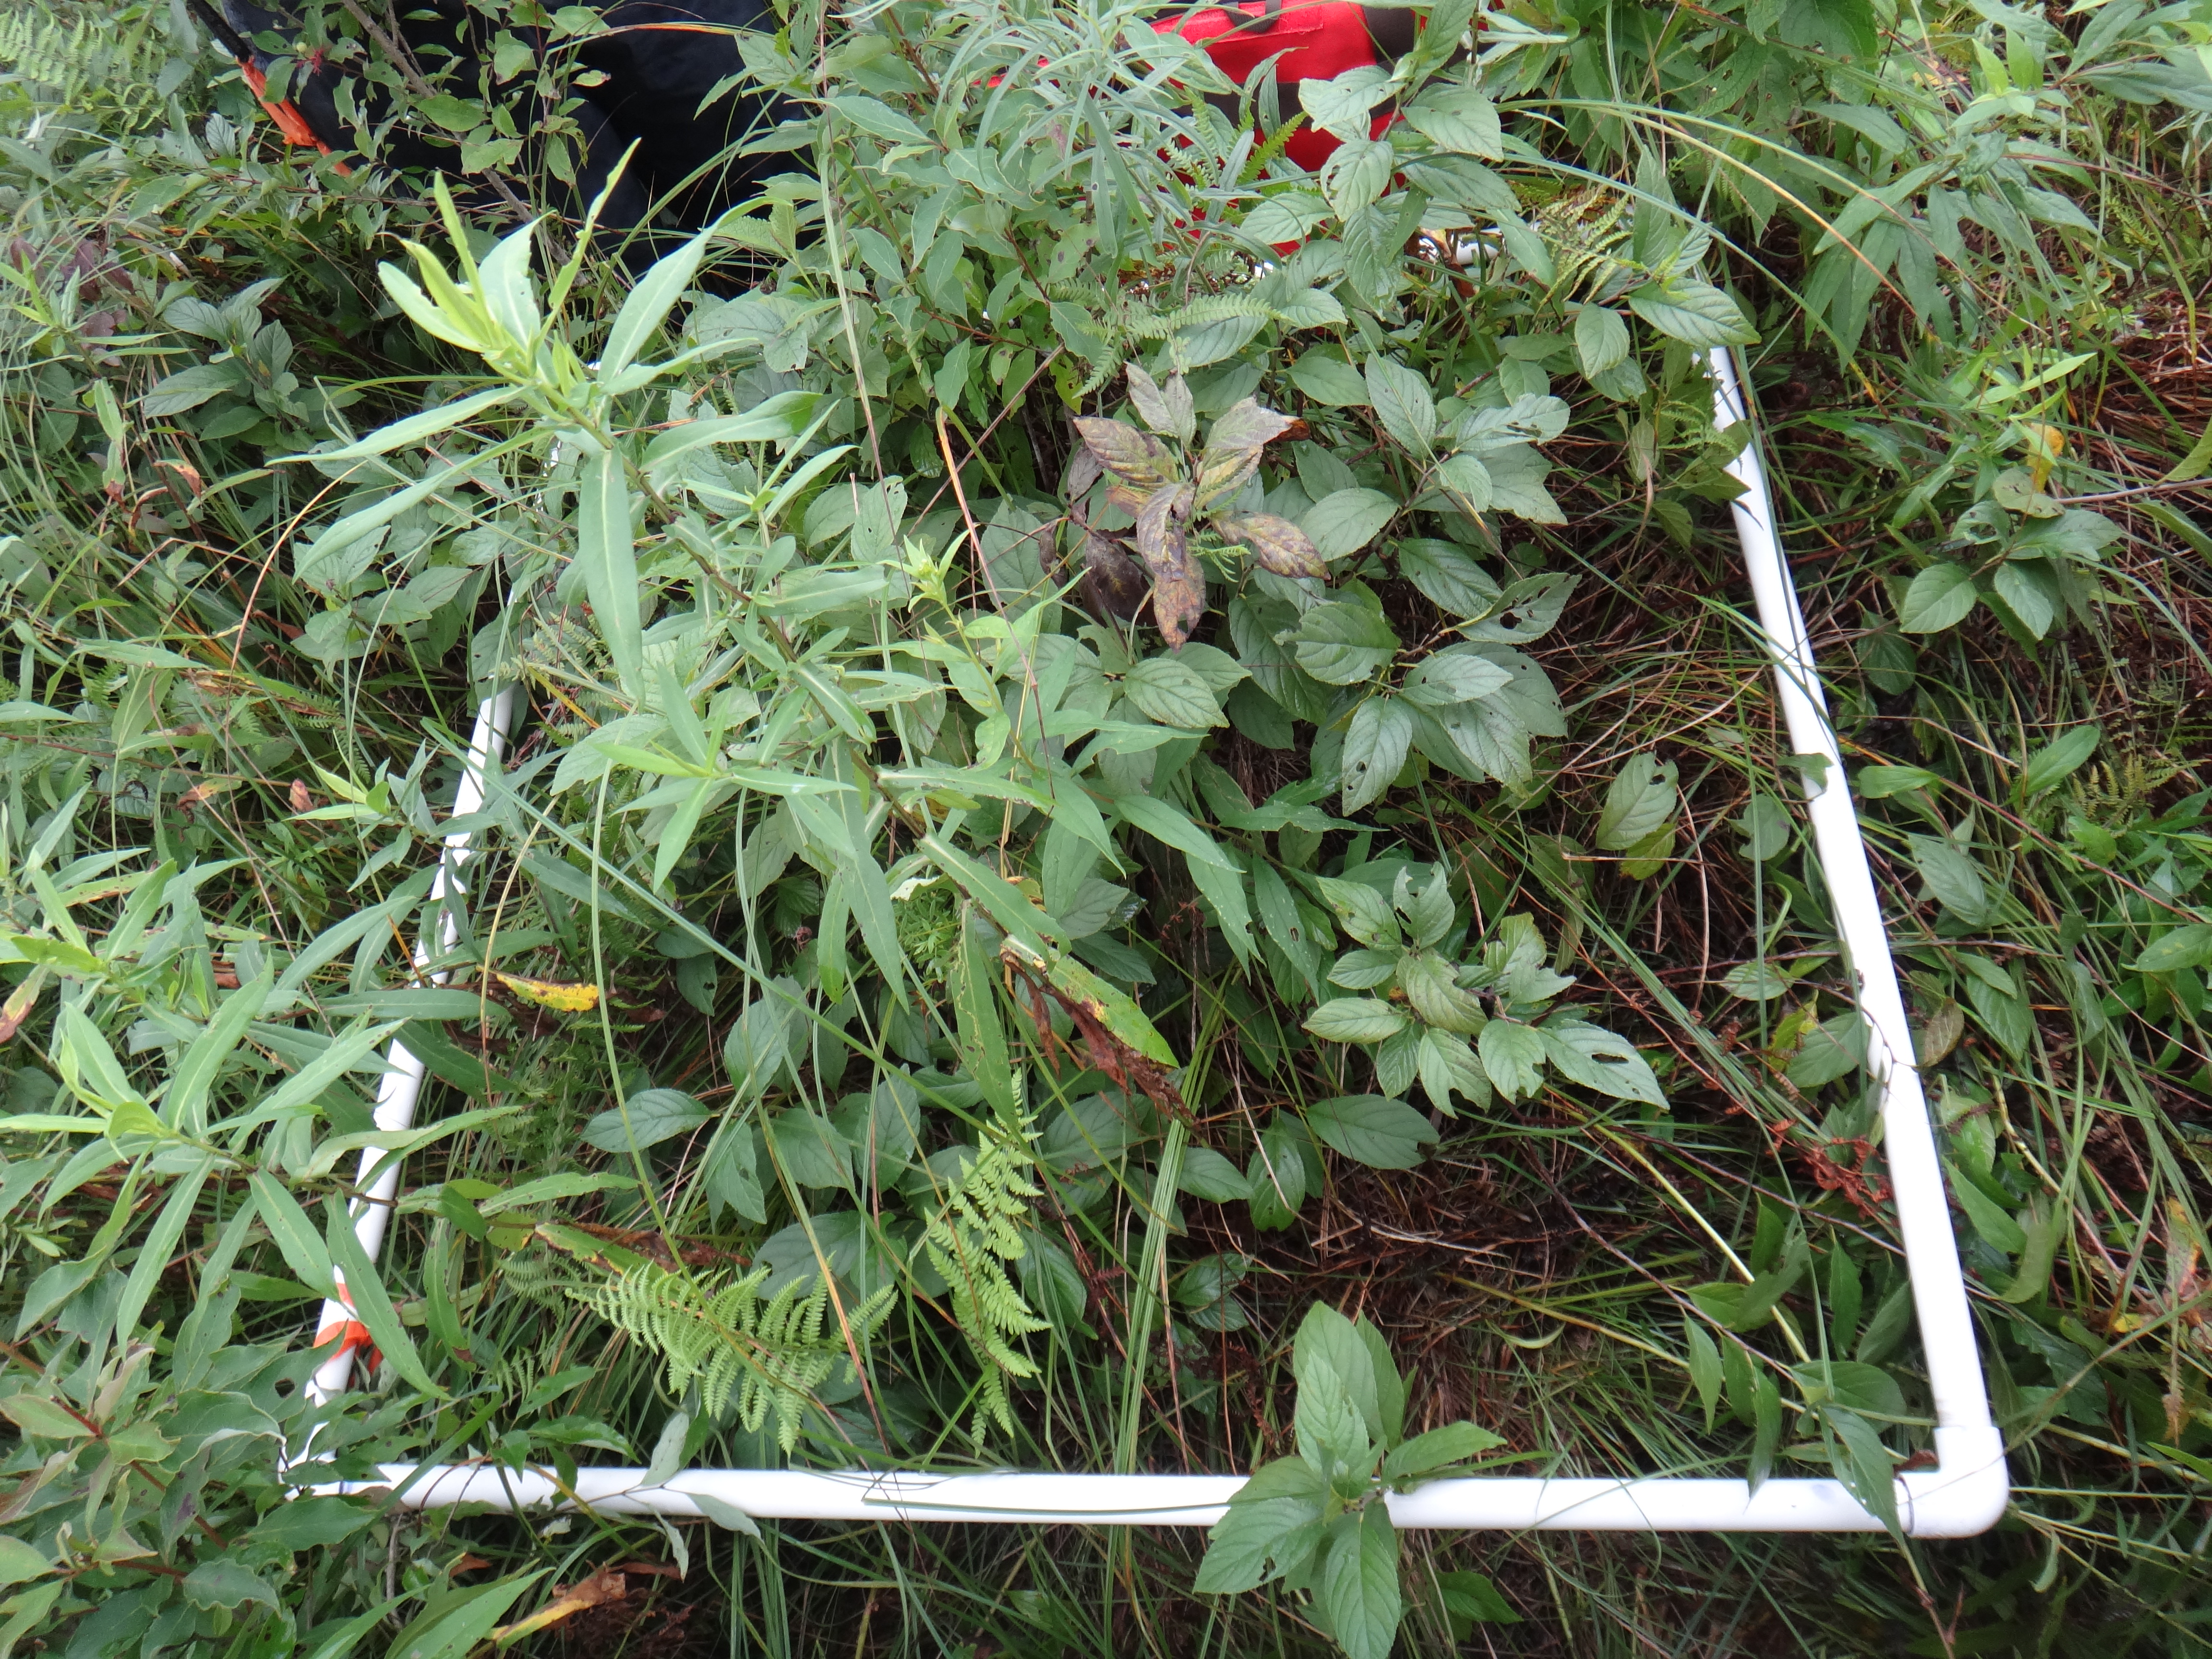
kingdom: Plantae
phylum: Tracheophyta
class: Magnoliopsida
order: Rosales
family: Rhamnaceae
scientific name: Rhamnaceae
